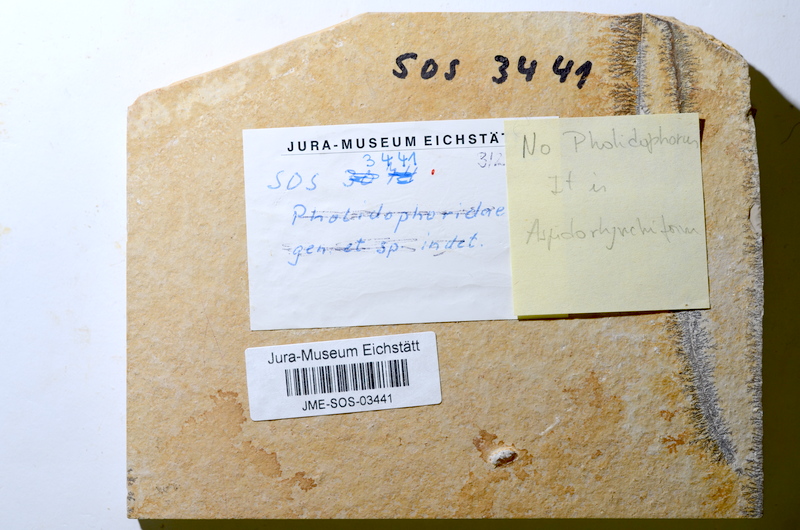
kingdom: Animalia
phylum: Chordata
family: Aspidorhynchidae
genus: Aspidorhynchus
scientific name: Aspidorhynchus acutirostris
